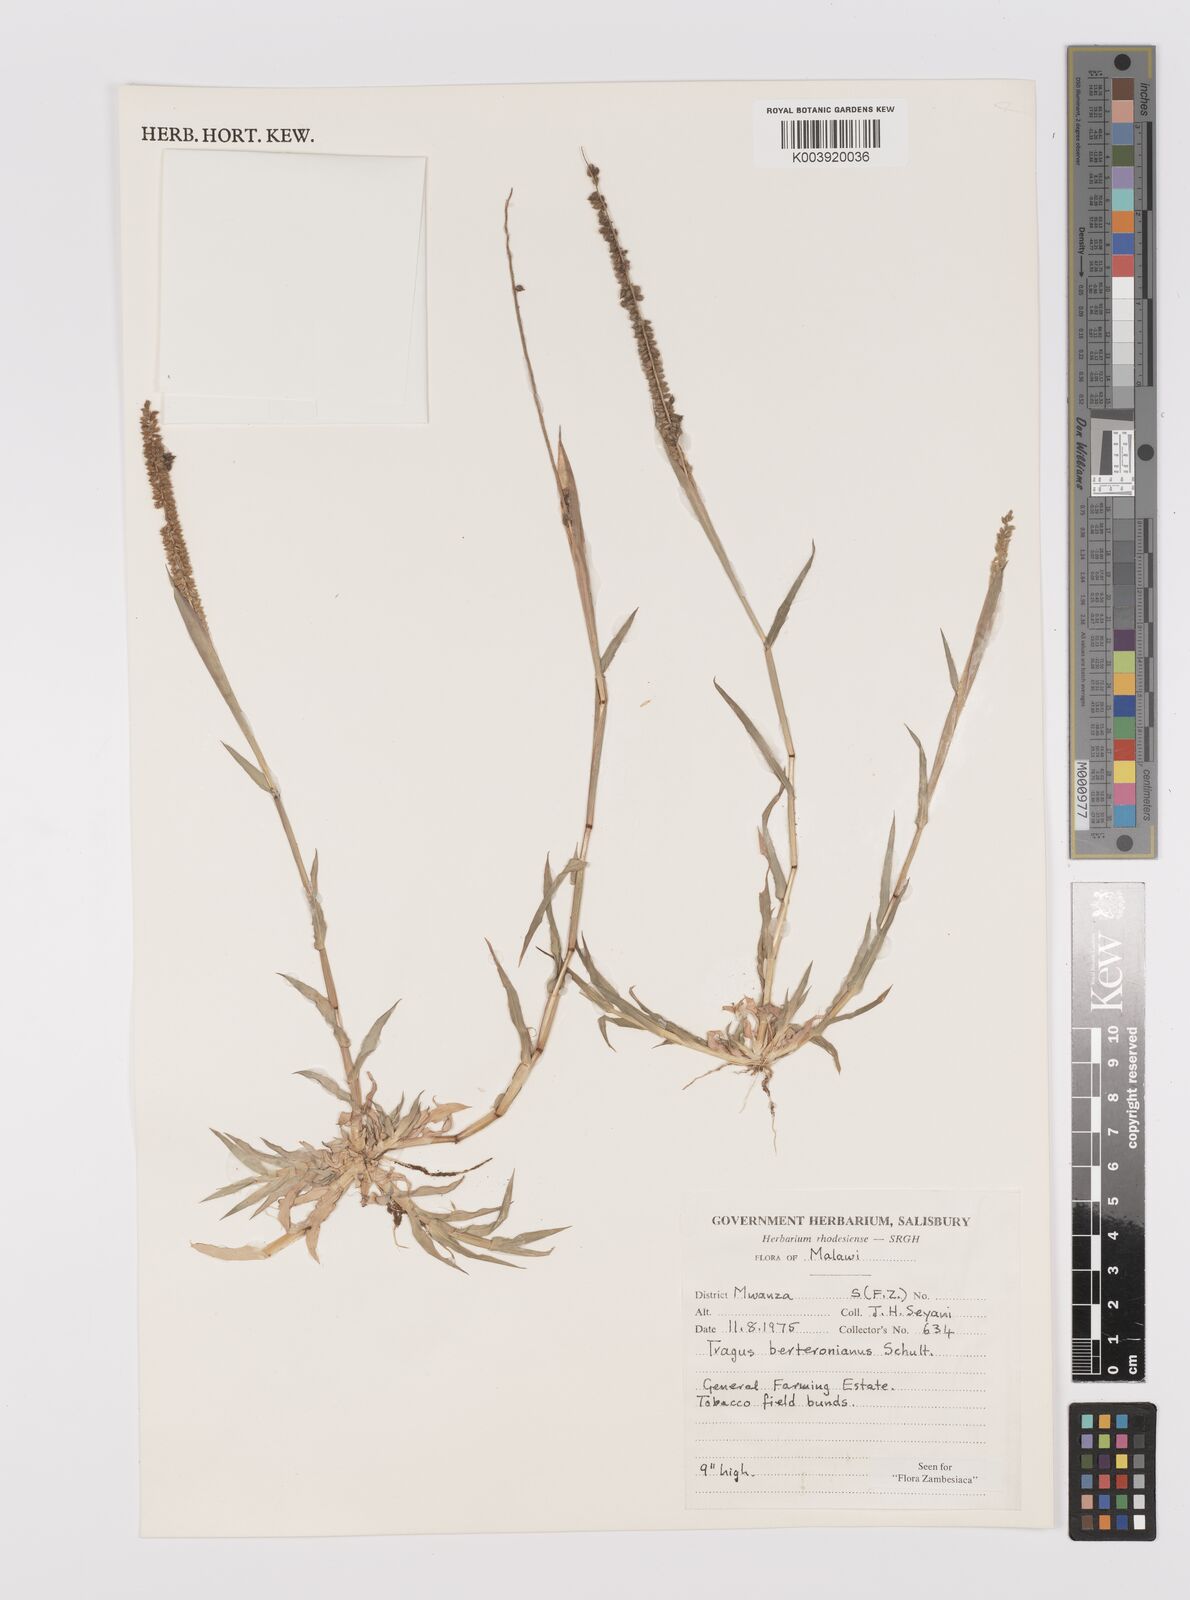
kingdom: Plantae
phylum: Tracheophyta
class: Liliopsida
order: Poales
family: Poaceae
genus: Tragus
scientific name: Tragus berteronianus
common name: African bur-grass
